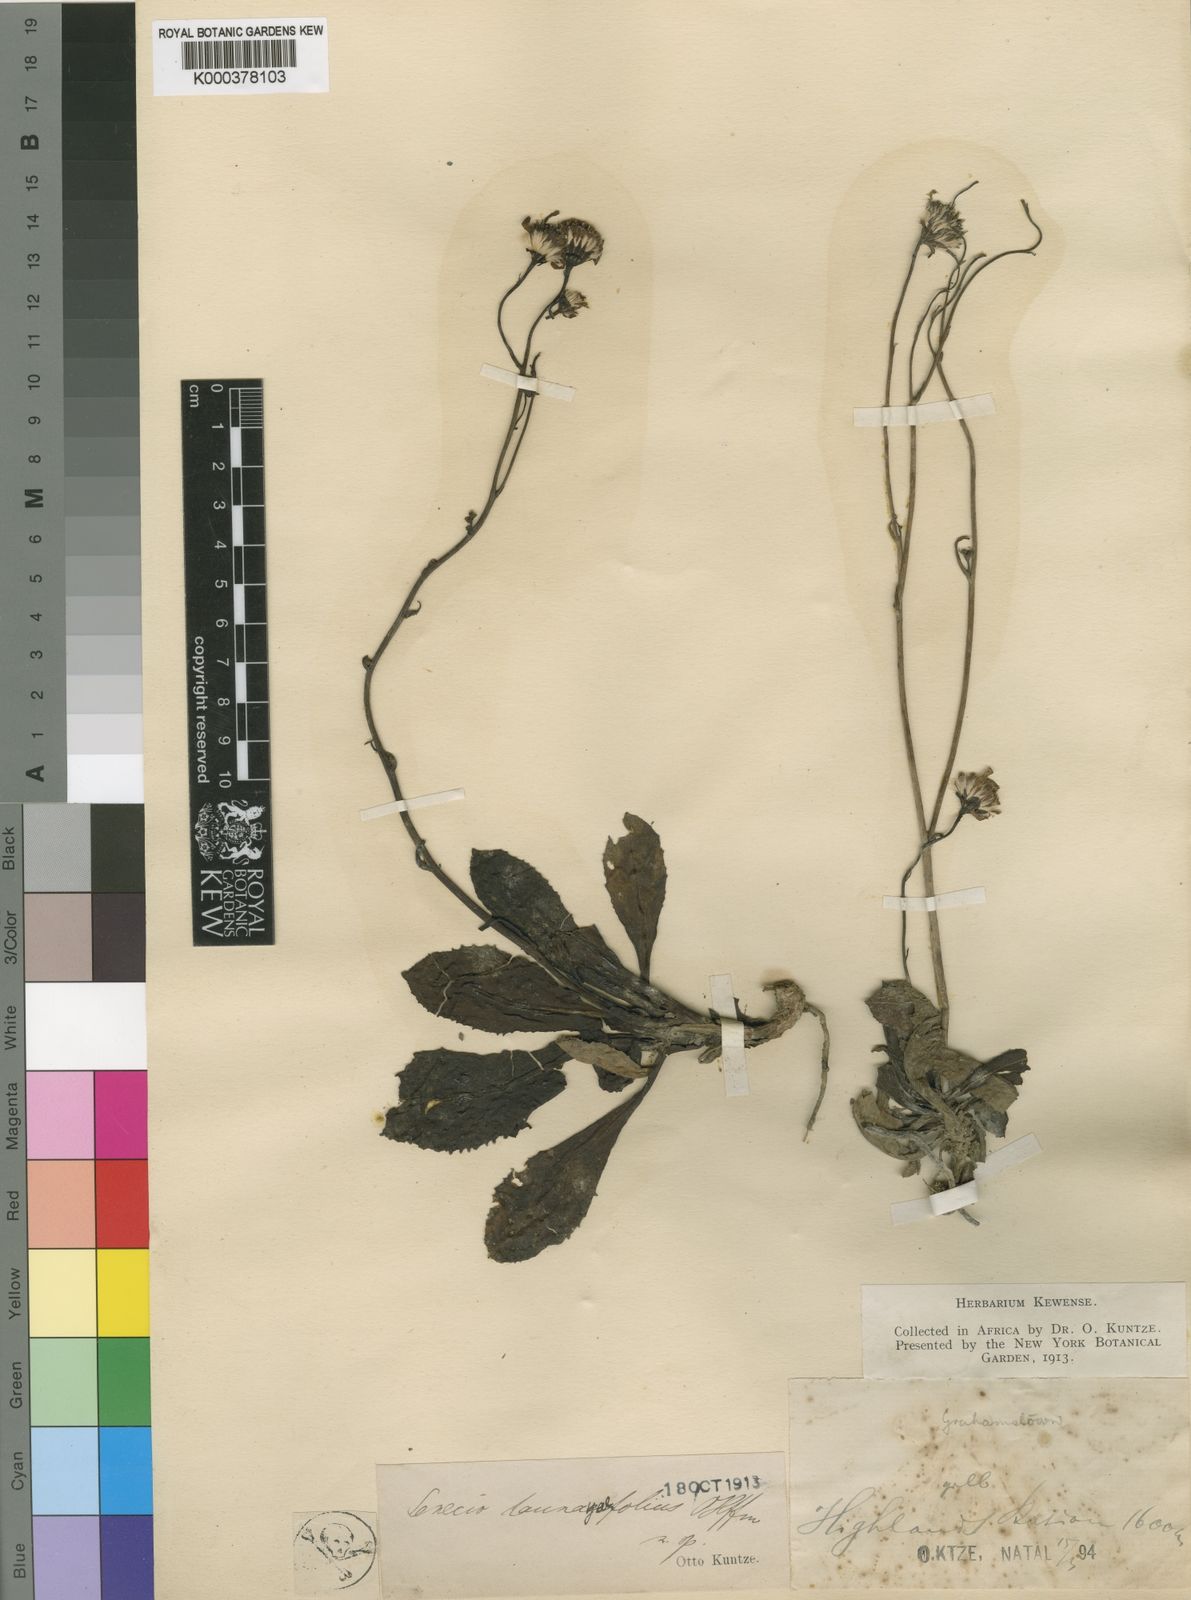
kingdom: Plantae
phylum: Tracheophyta
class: Magnoliopsida
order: Asterales
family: Asteraceae
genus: Senecio
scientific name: Senecio paucicalyculatus
